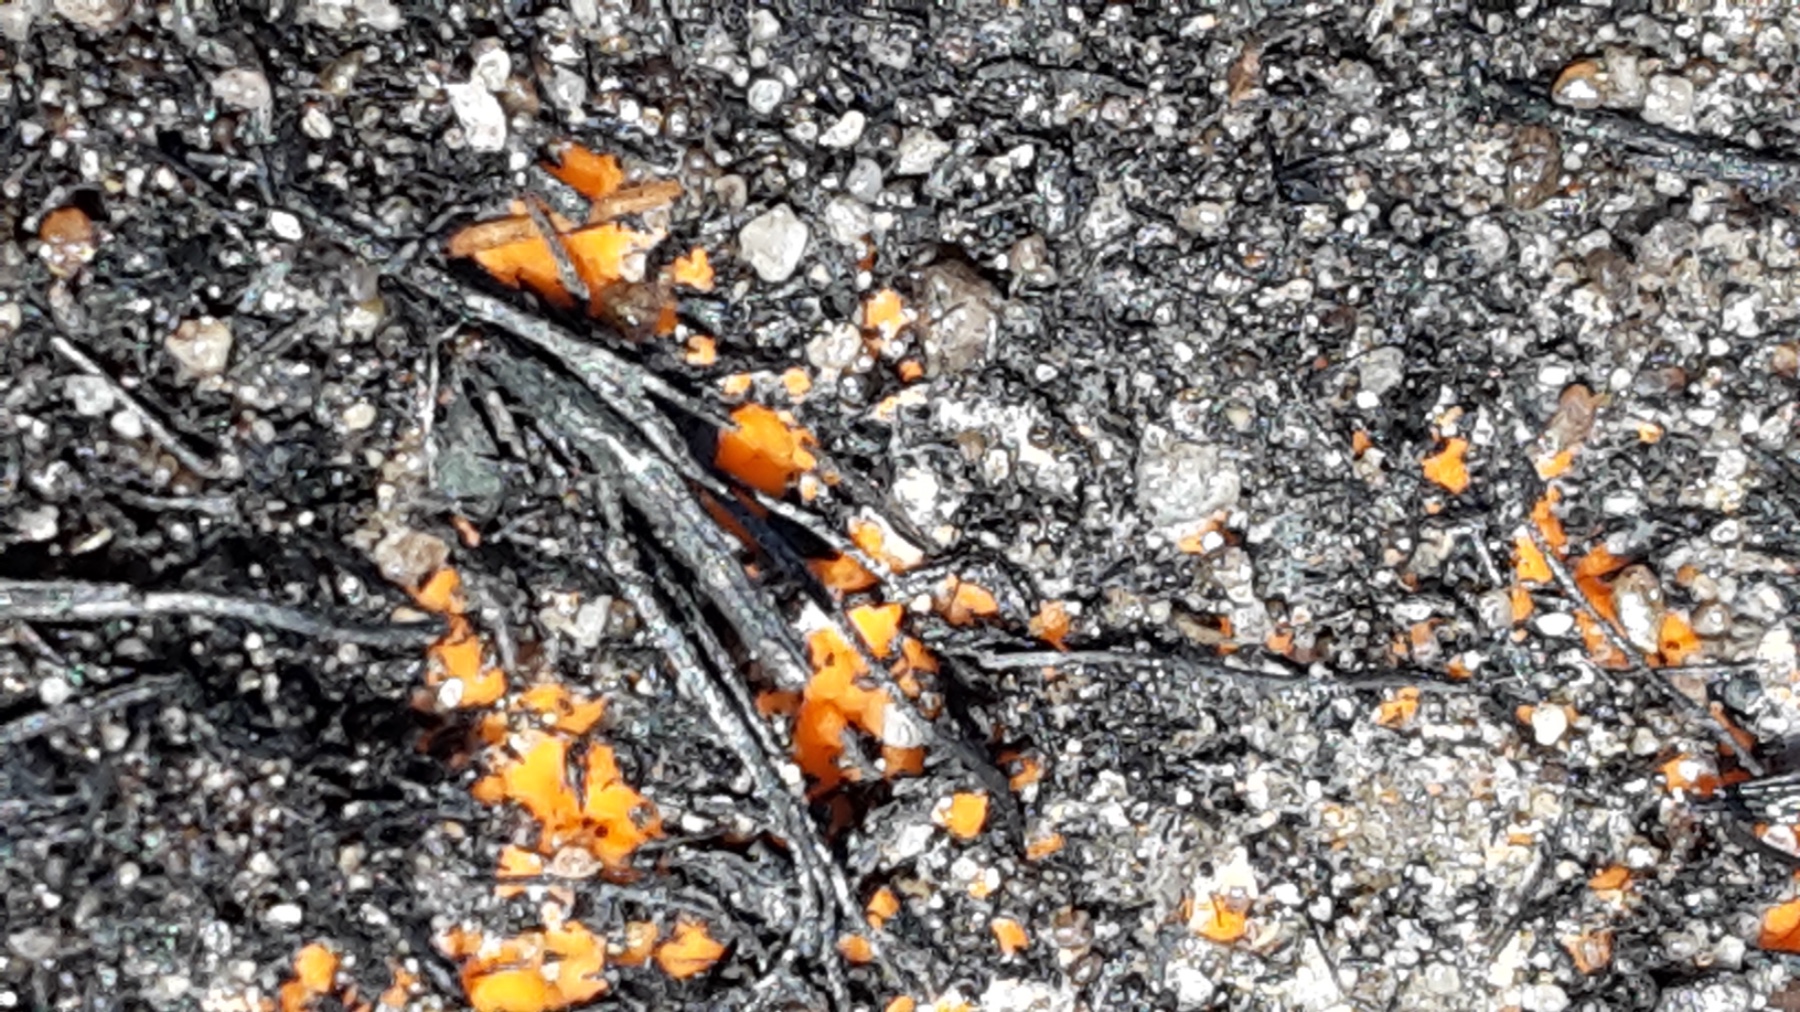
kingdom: Fungi
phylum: Ascomycota
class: Pezizomycetes
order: Pezizales
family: Pyronemataceae
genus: Pyronema
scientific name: Pyronema
